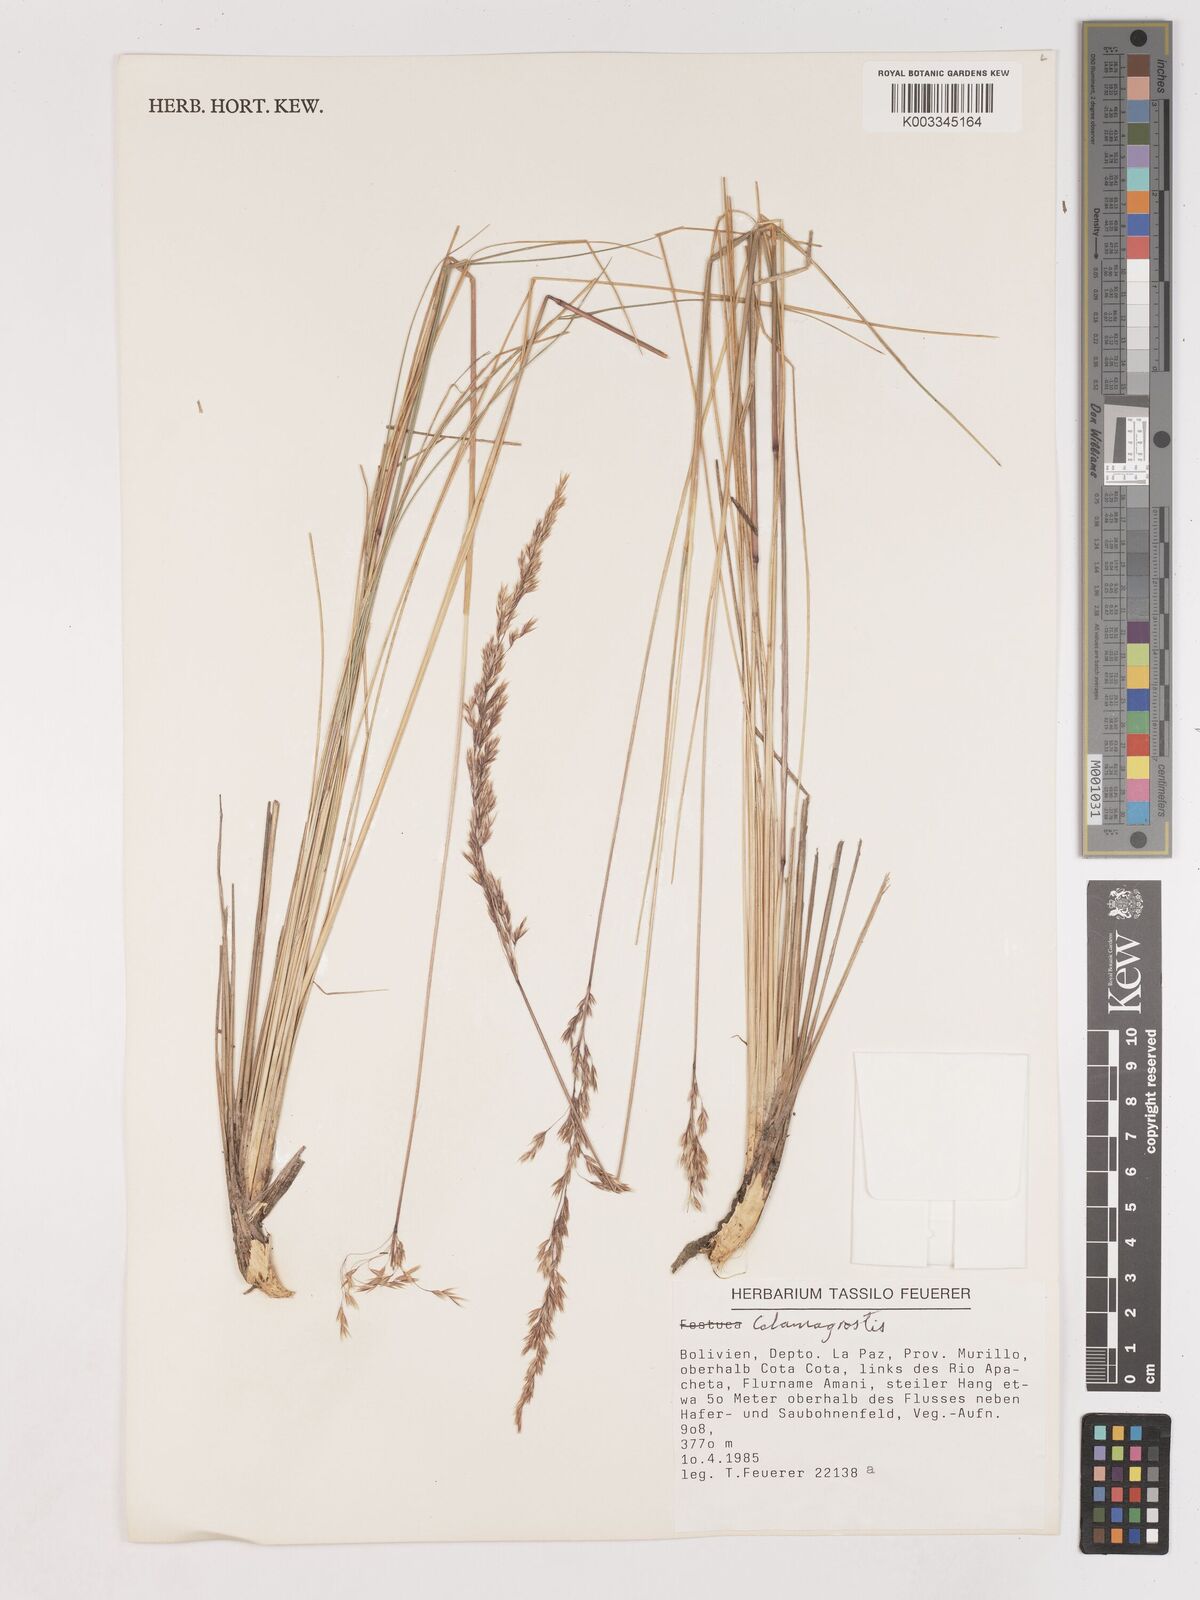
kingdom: Plantae
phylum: Tracheophyta
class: Liliopsida
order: Poales
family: Poaceae
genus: Calamagrostis
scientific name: Calamagrostis
